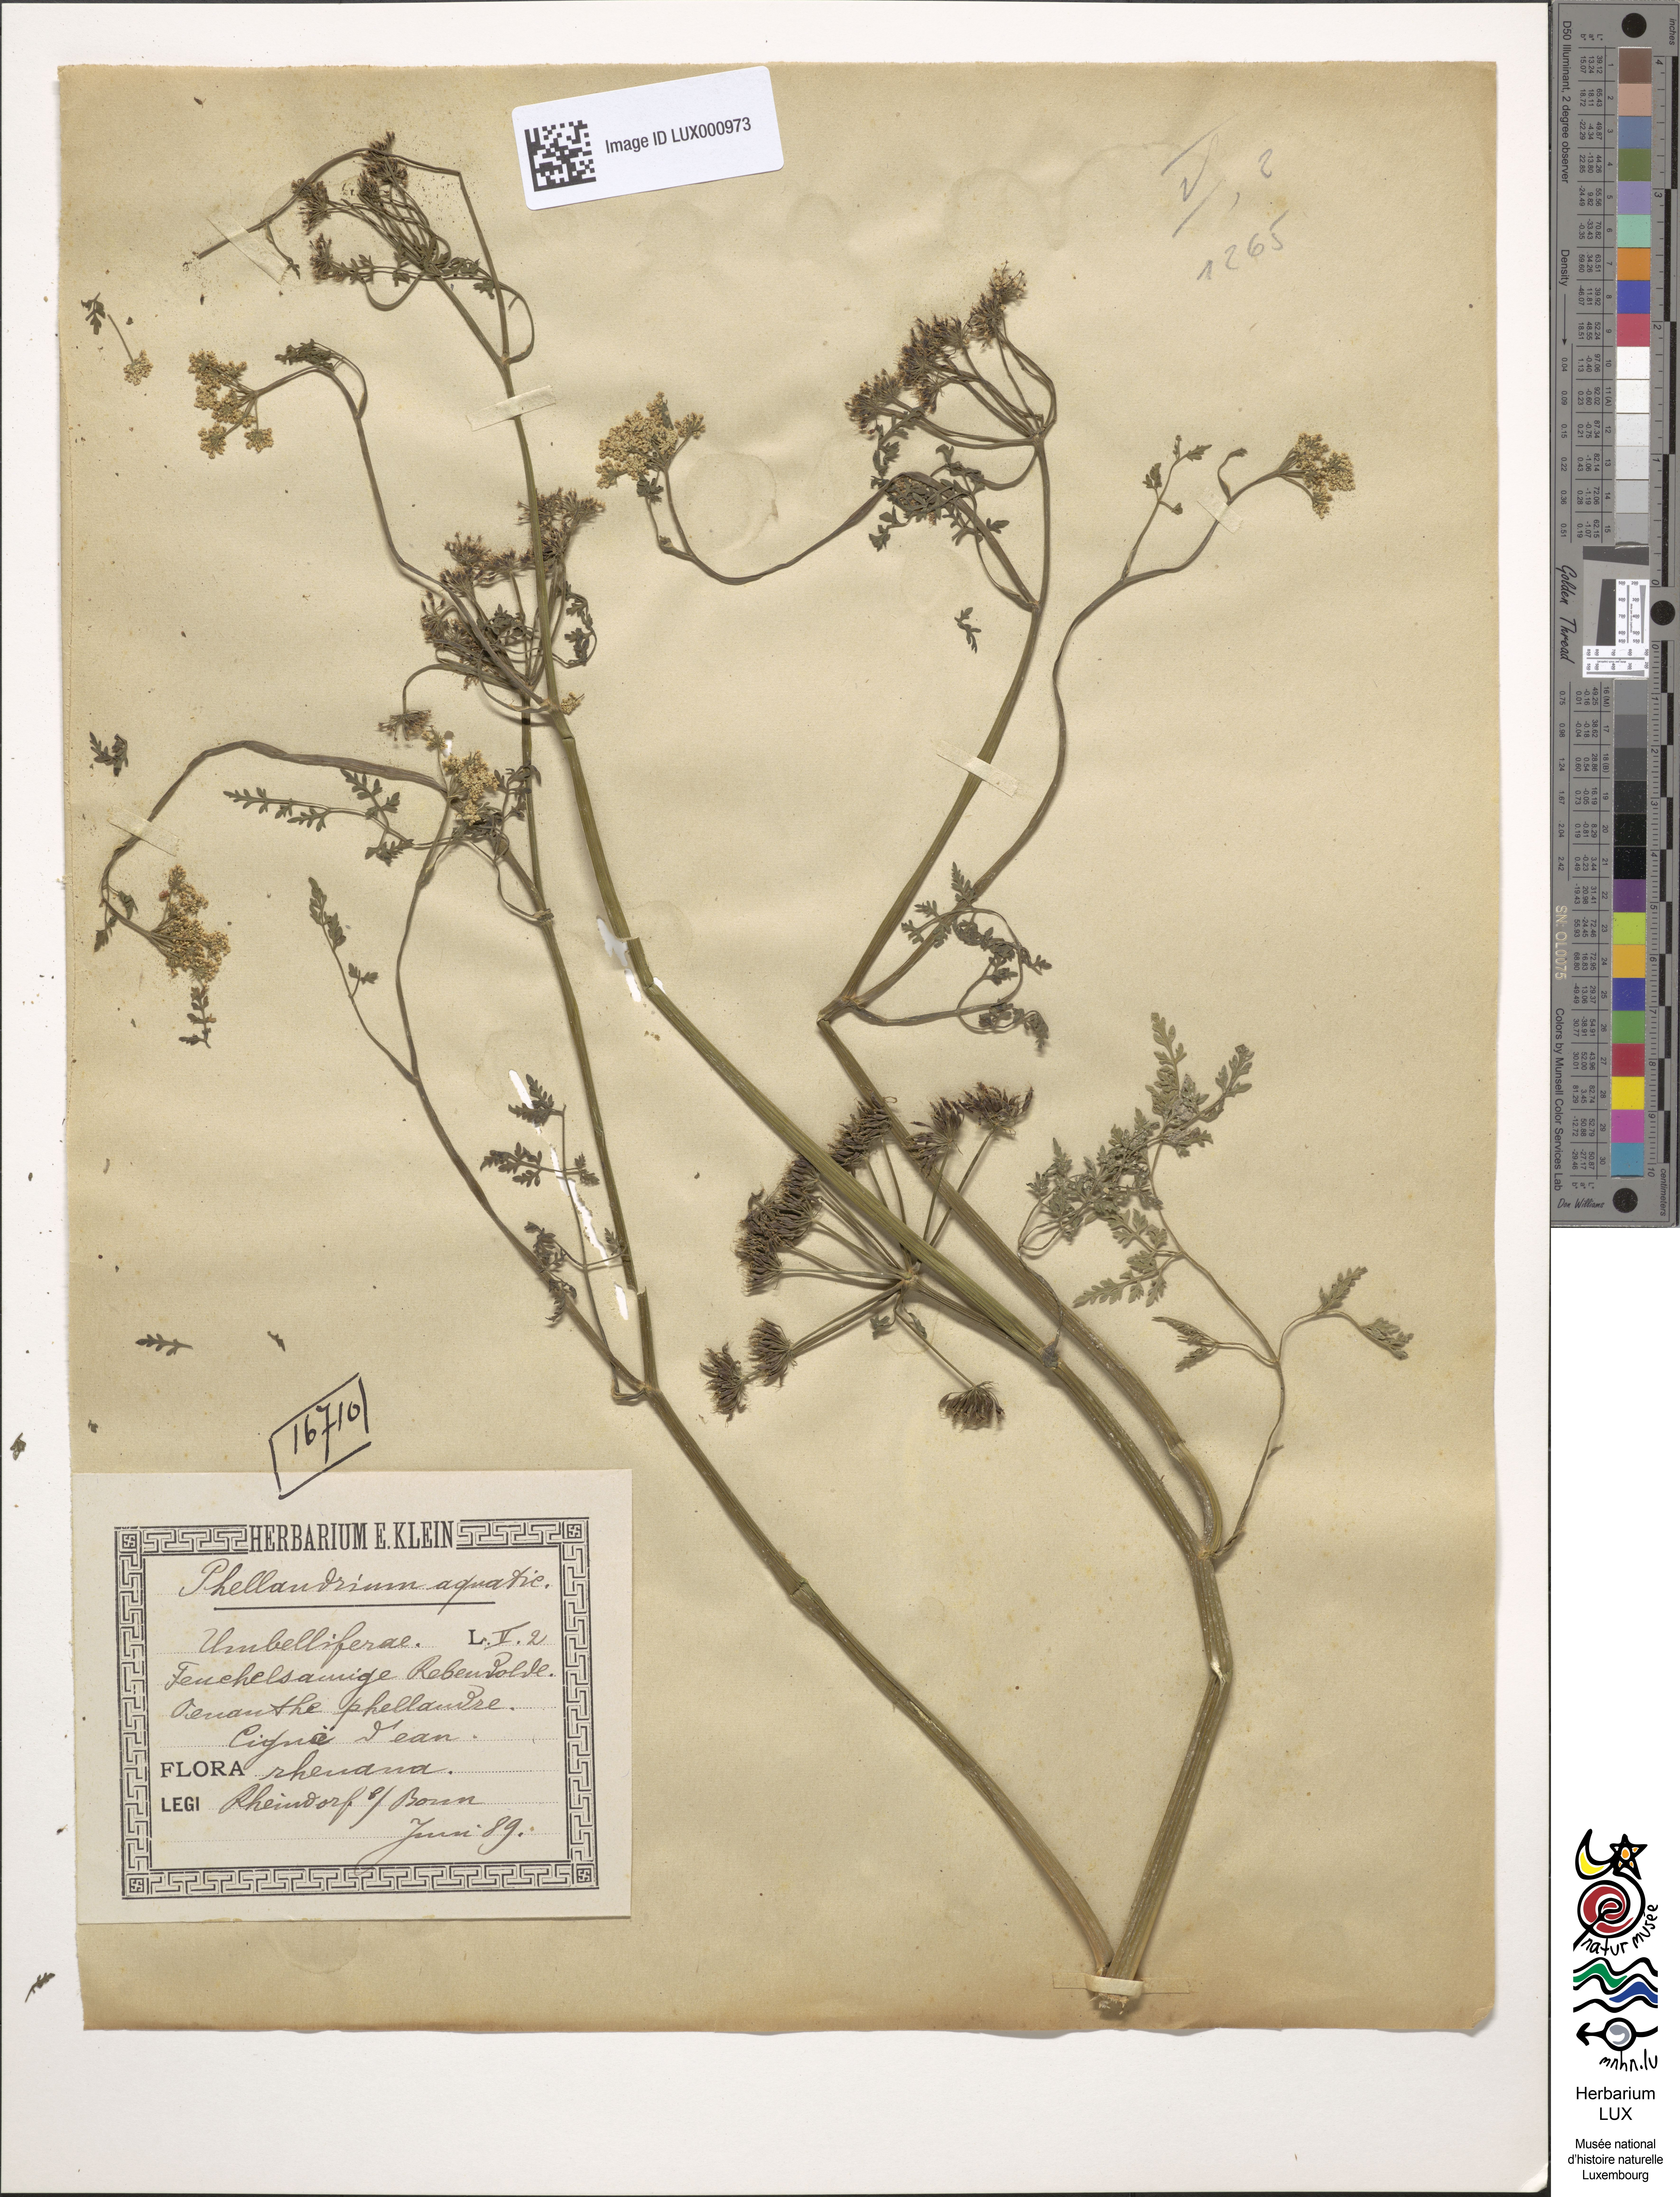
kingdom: Plantae
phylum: Tracheophyta
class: Magnoliopsida
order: Apiales
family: Apiaceae
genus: Oenanthe
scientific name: Oenanthe aquatica
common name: Fine-leaved water-dropwort
